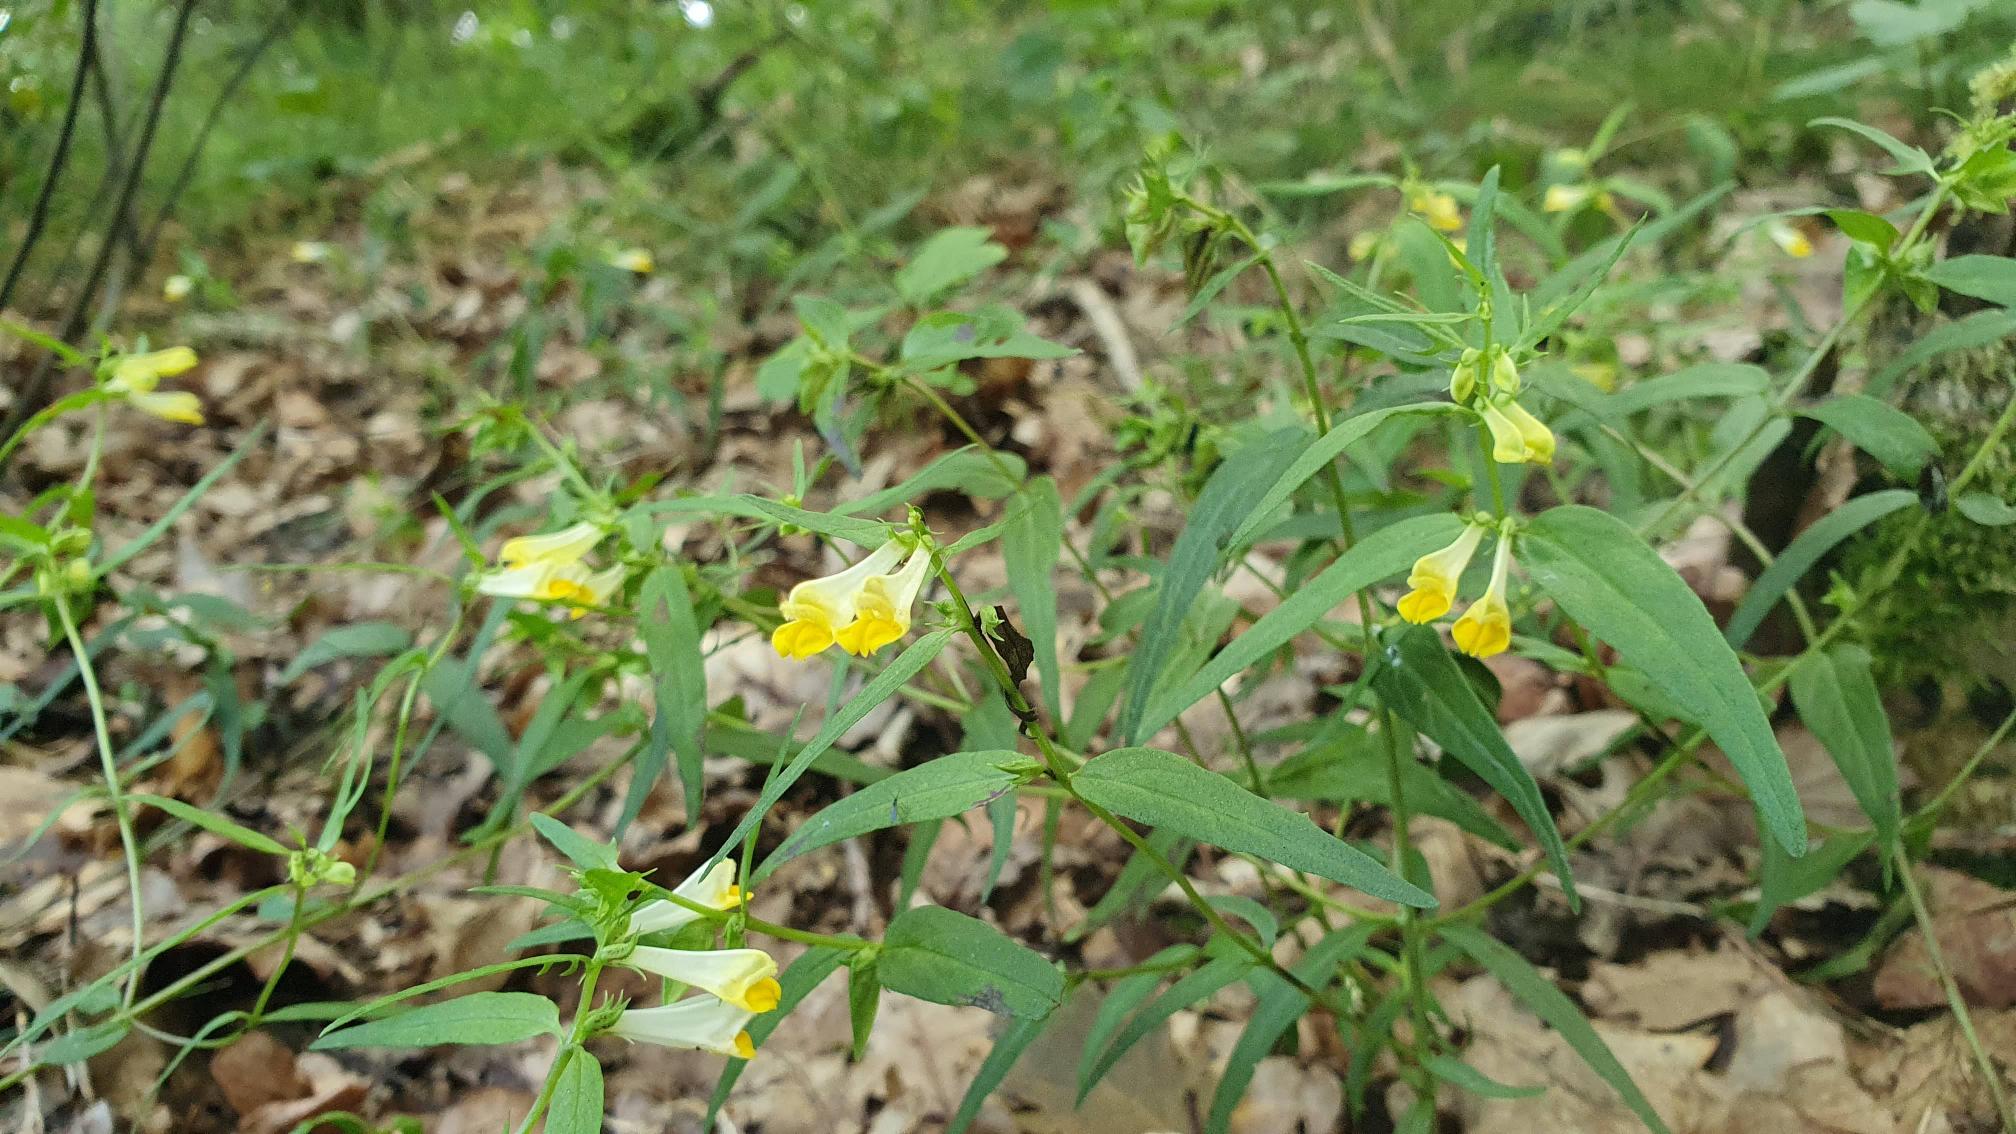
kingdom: Plantae
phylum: Tracheophyta
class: Magnoliopsida
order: Lamiales
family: Orobanchaceae
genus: Melampyrum
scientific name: Melampyrum pratense
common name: Almindelig kohvede
